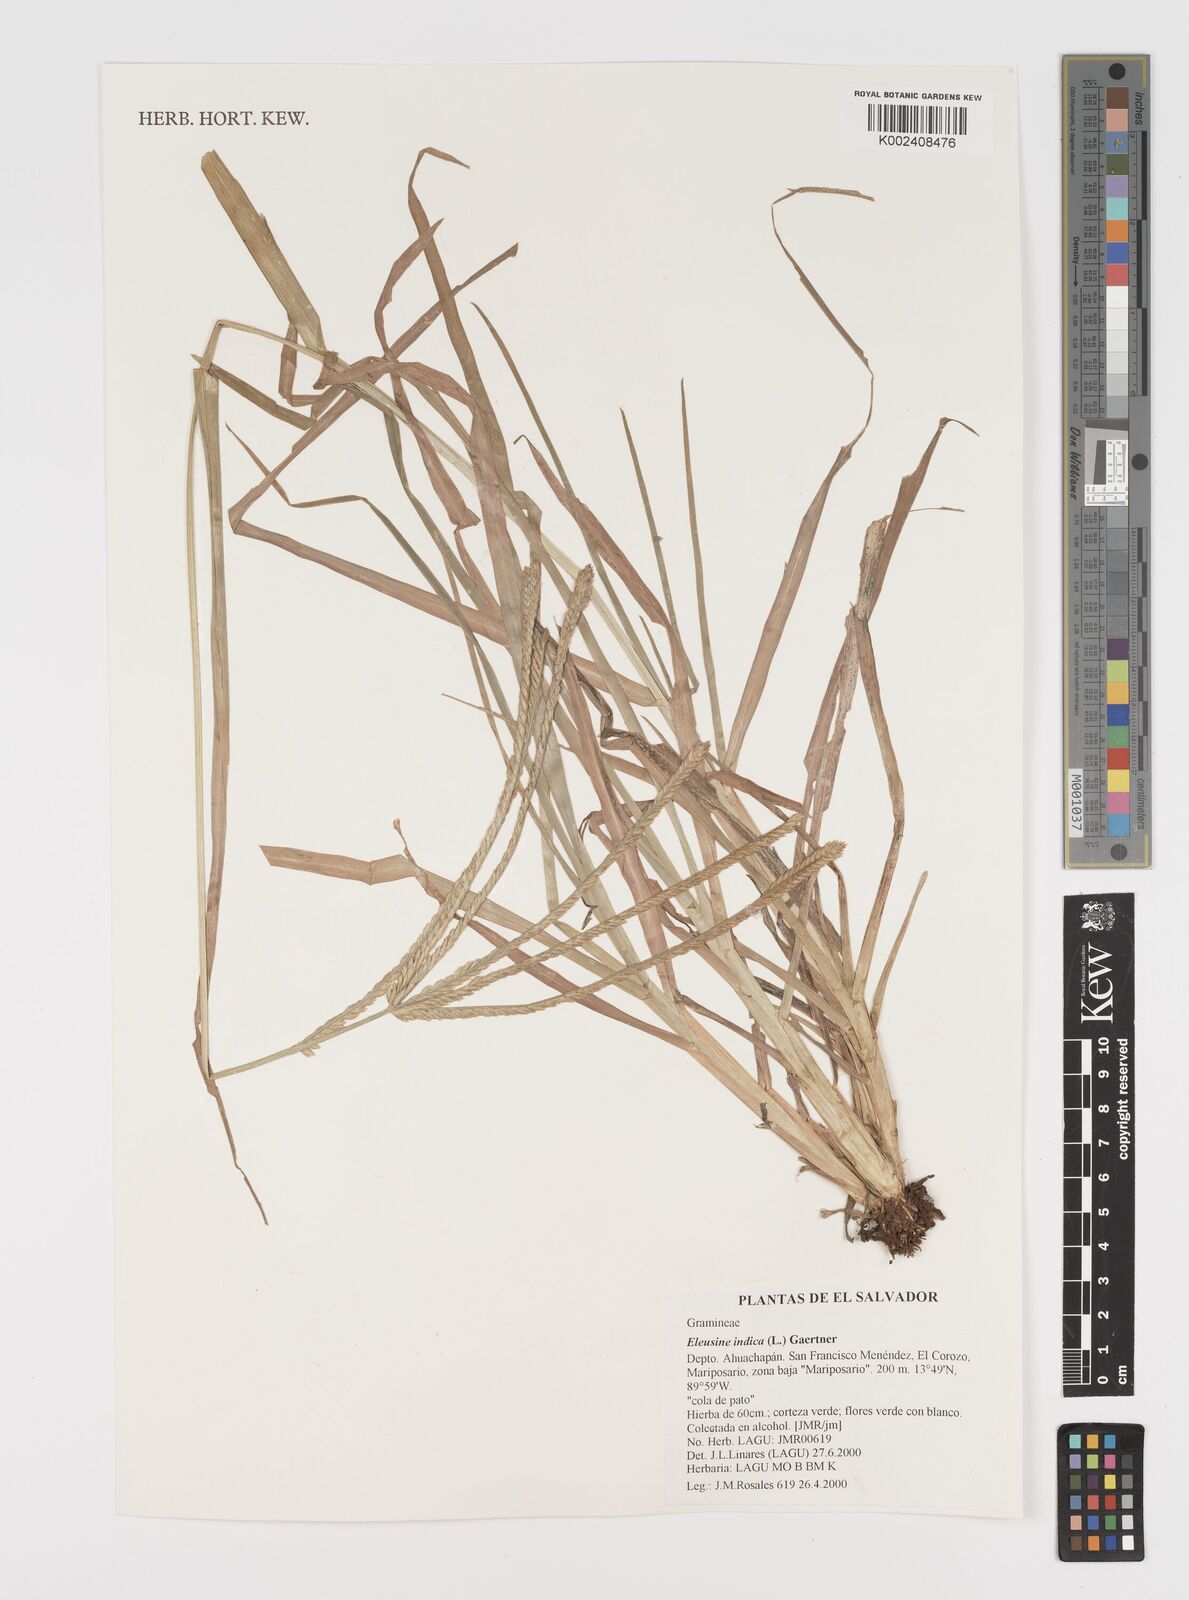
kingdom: Plantae
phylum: Tracheophyta
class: Liliopsida
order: Poales
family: Poaceae
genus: Eleusine
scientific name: Eleusine indica
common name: Yard-grass
